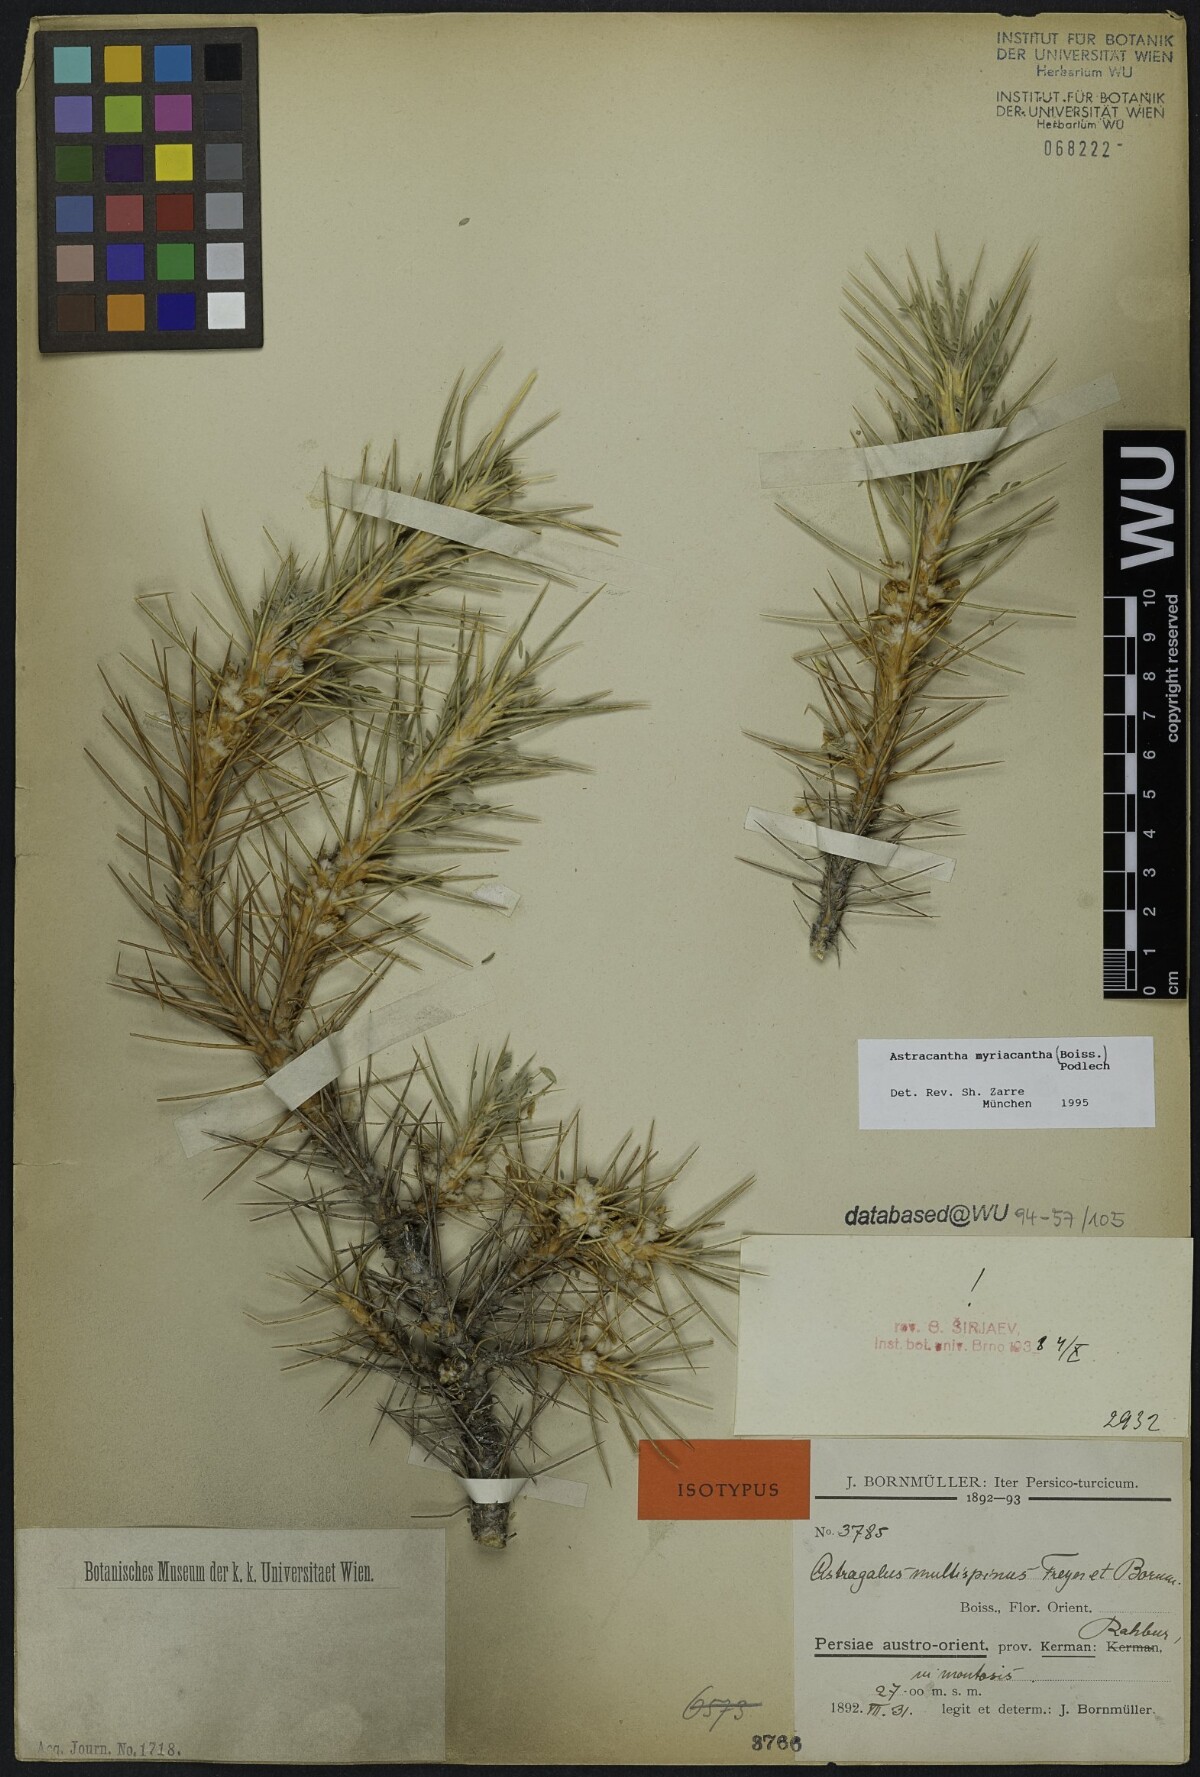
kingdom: Plantae
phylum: Tracheophyta
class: Magnoliopsida
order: Fabales
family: Fabaceae
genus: Astragalus
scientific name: Astragalus myriacanthus
